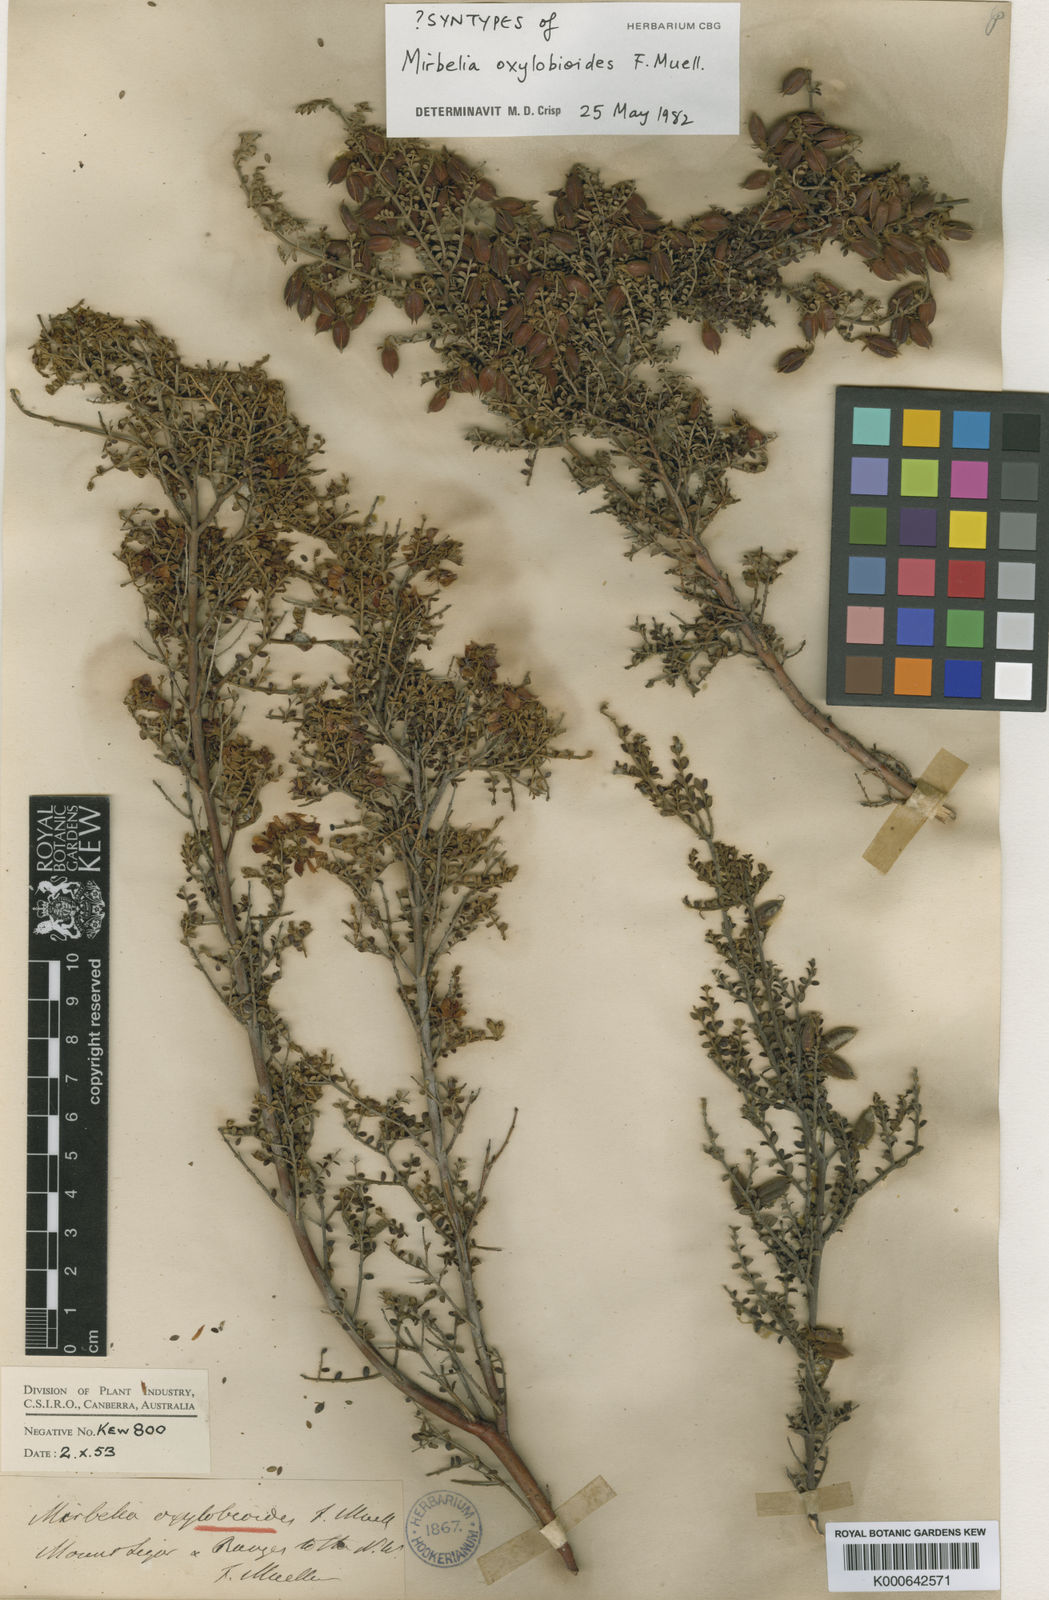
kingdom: Plantae
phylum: Tracheophyta
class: Magnoliopsida
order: Fabales
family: Fabaceae
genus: Oxylobium
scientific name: Oxylobium oxylobioides
